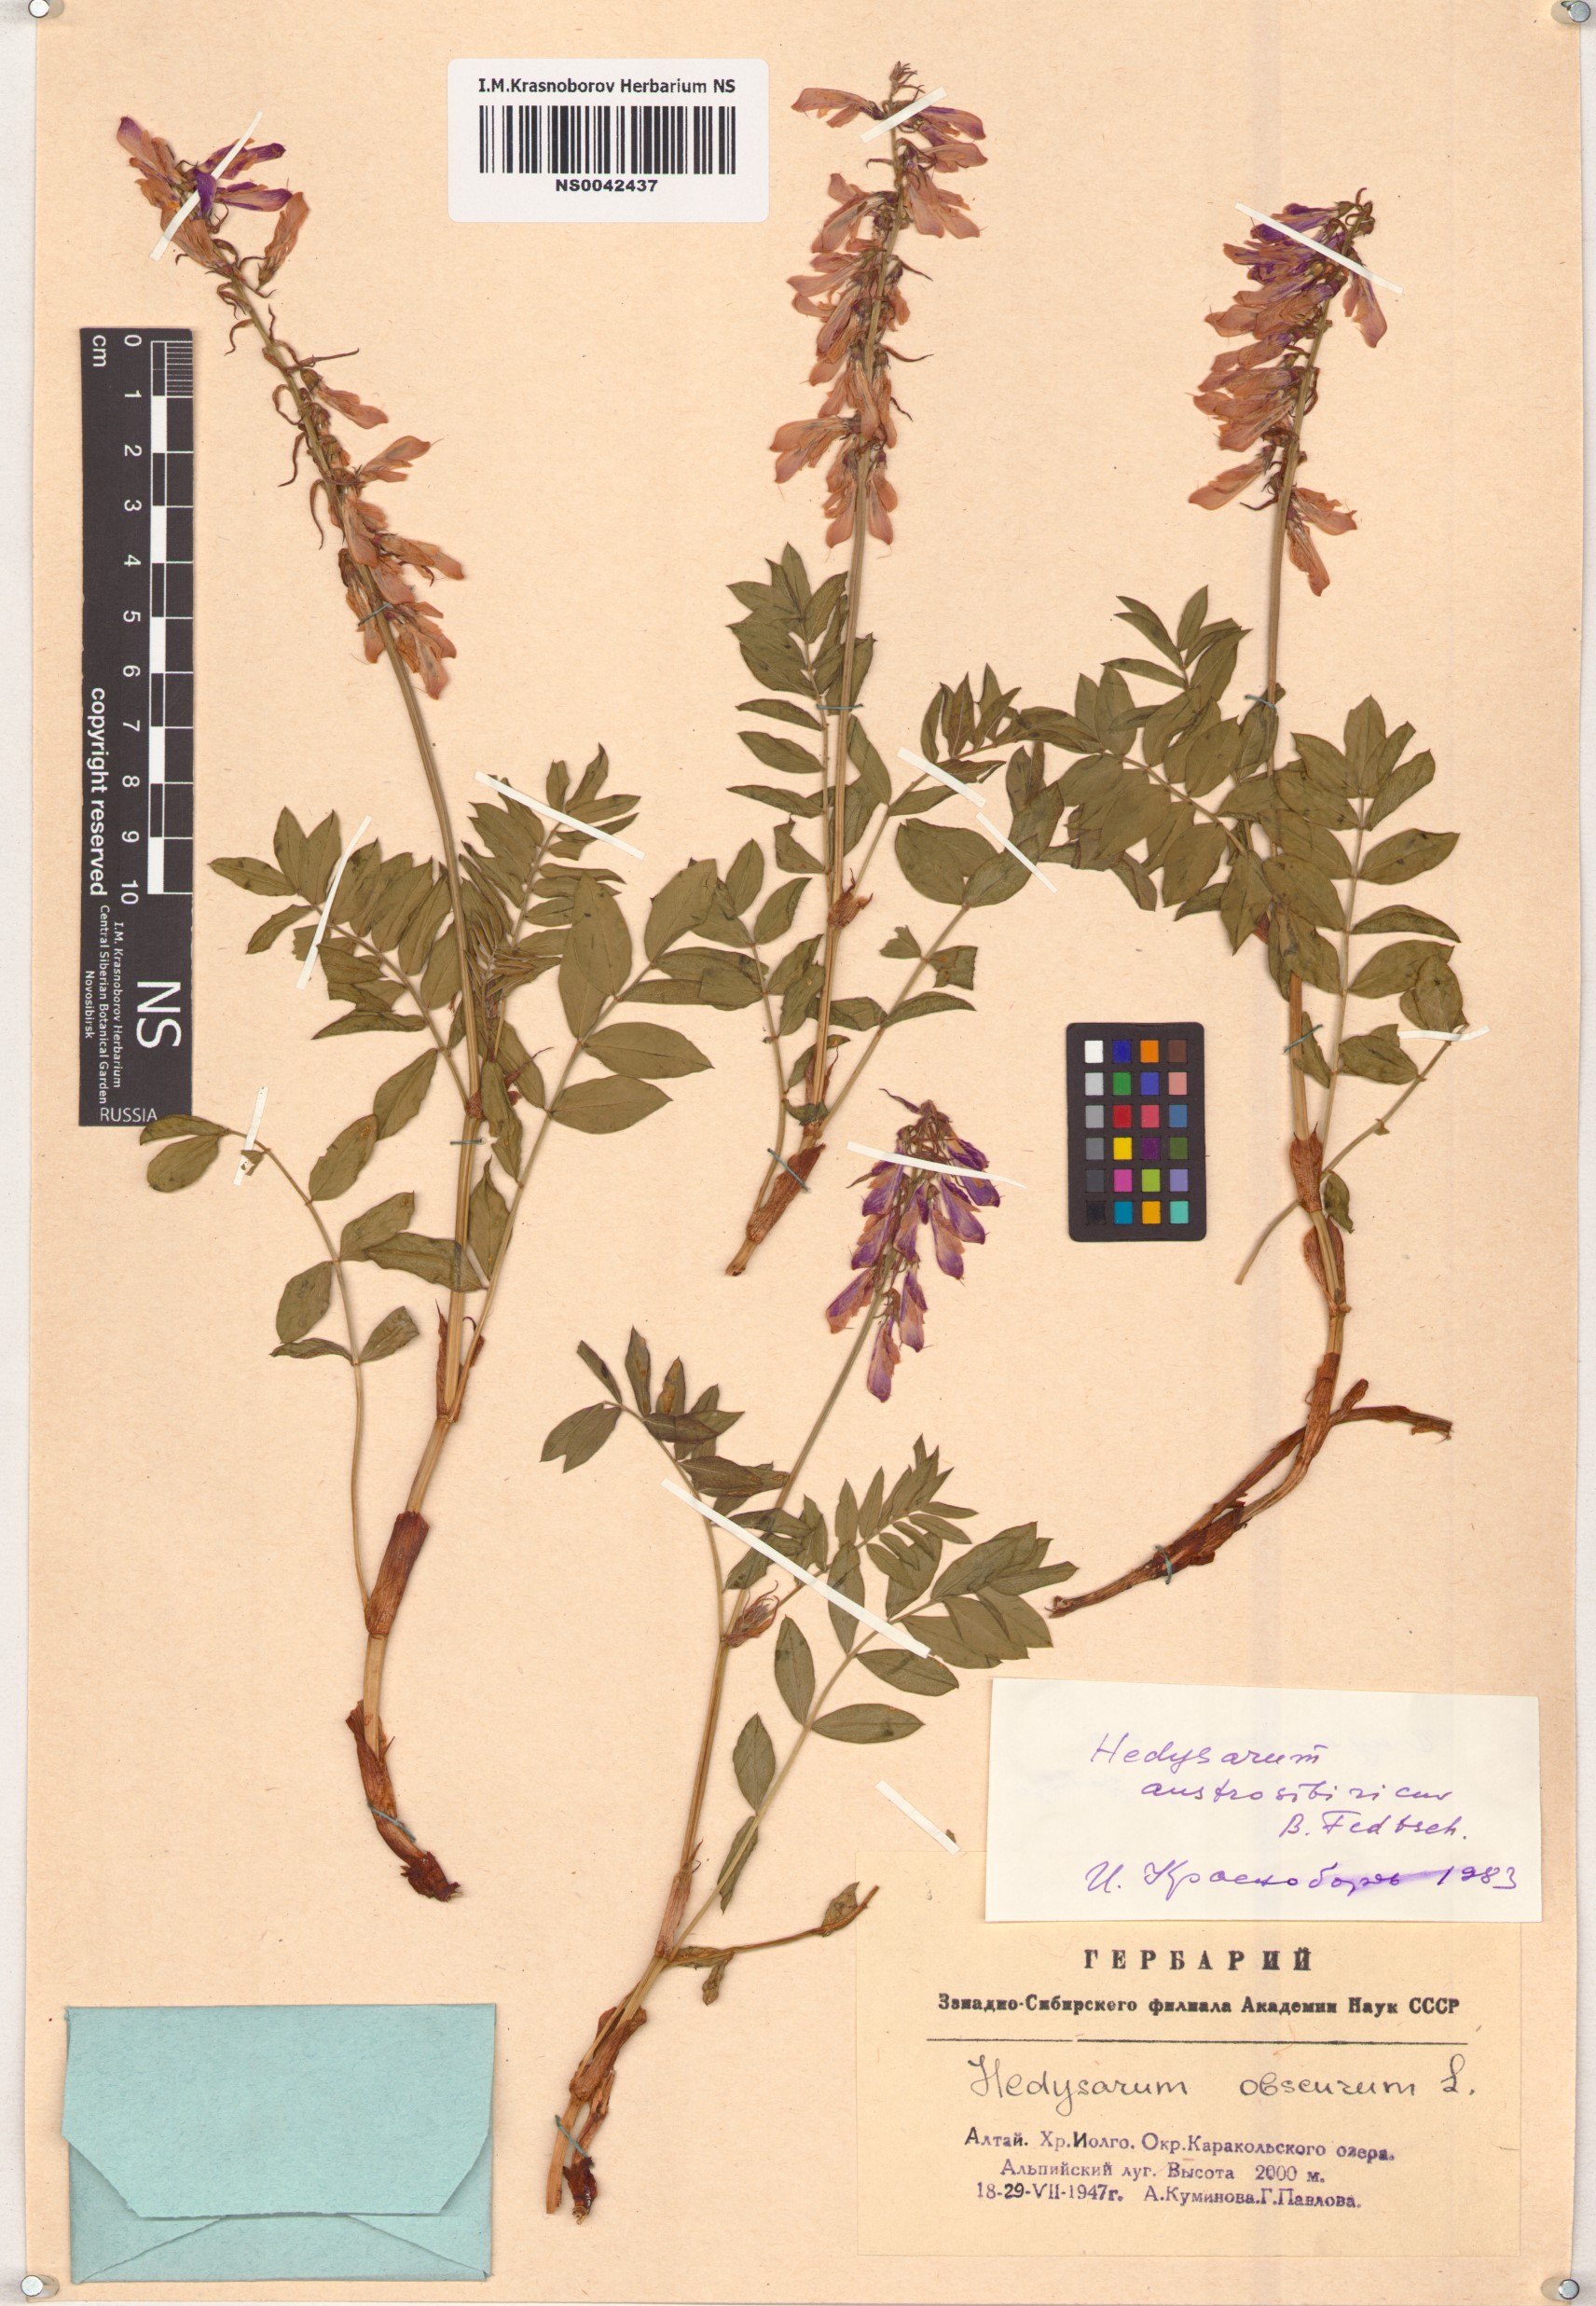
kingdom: Plantae
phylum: Tracheophyta
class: Magnoliopsida
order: Fabales
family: Fabaceae
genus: Hedysarum
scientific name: Hedysarum neglectum
